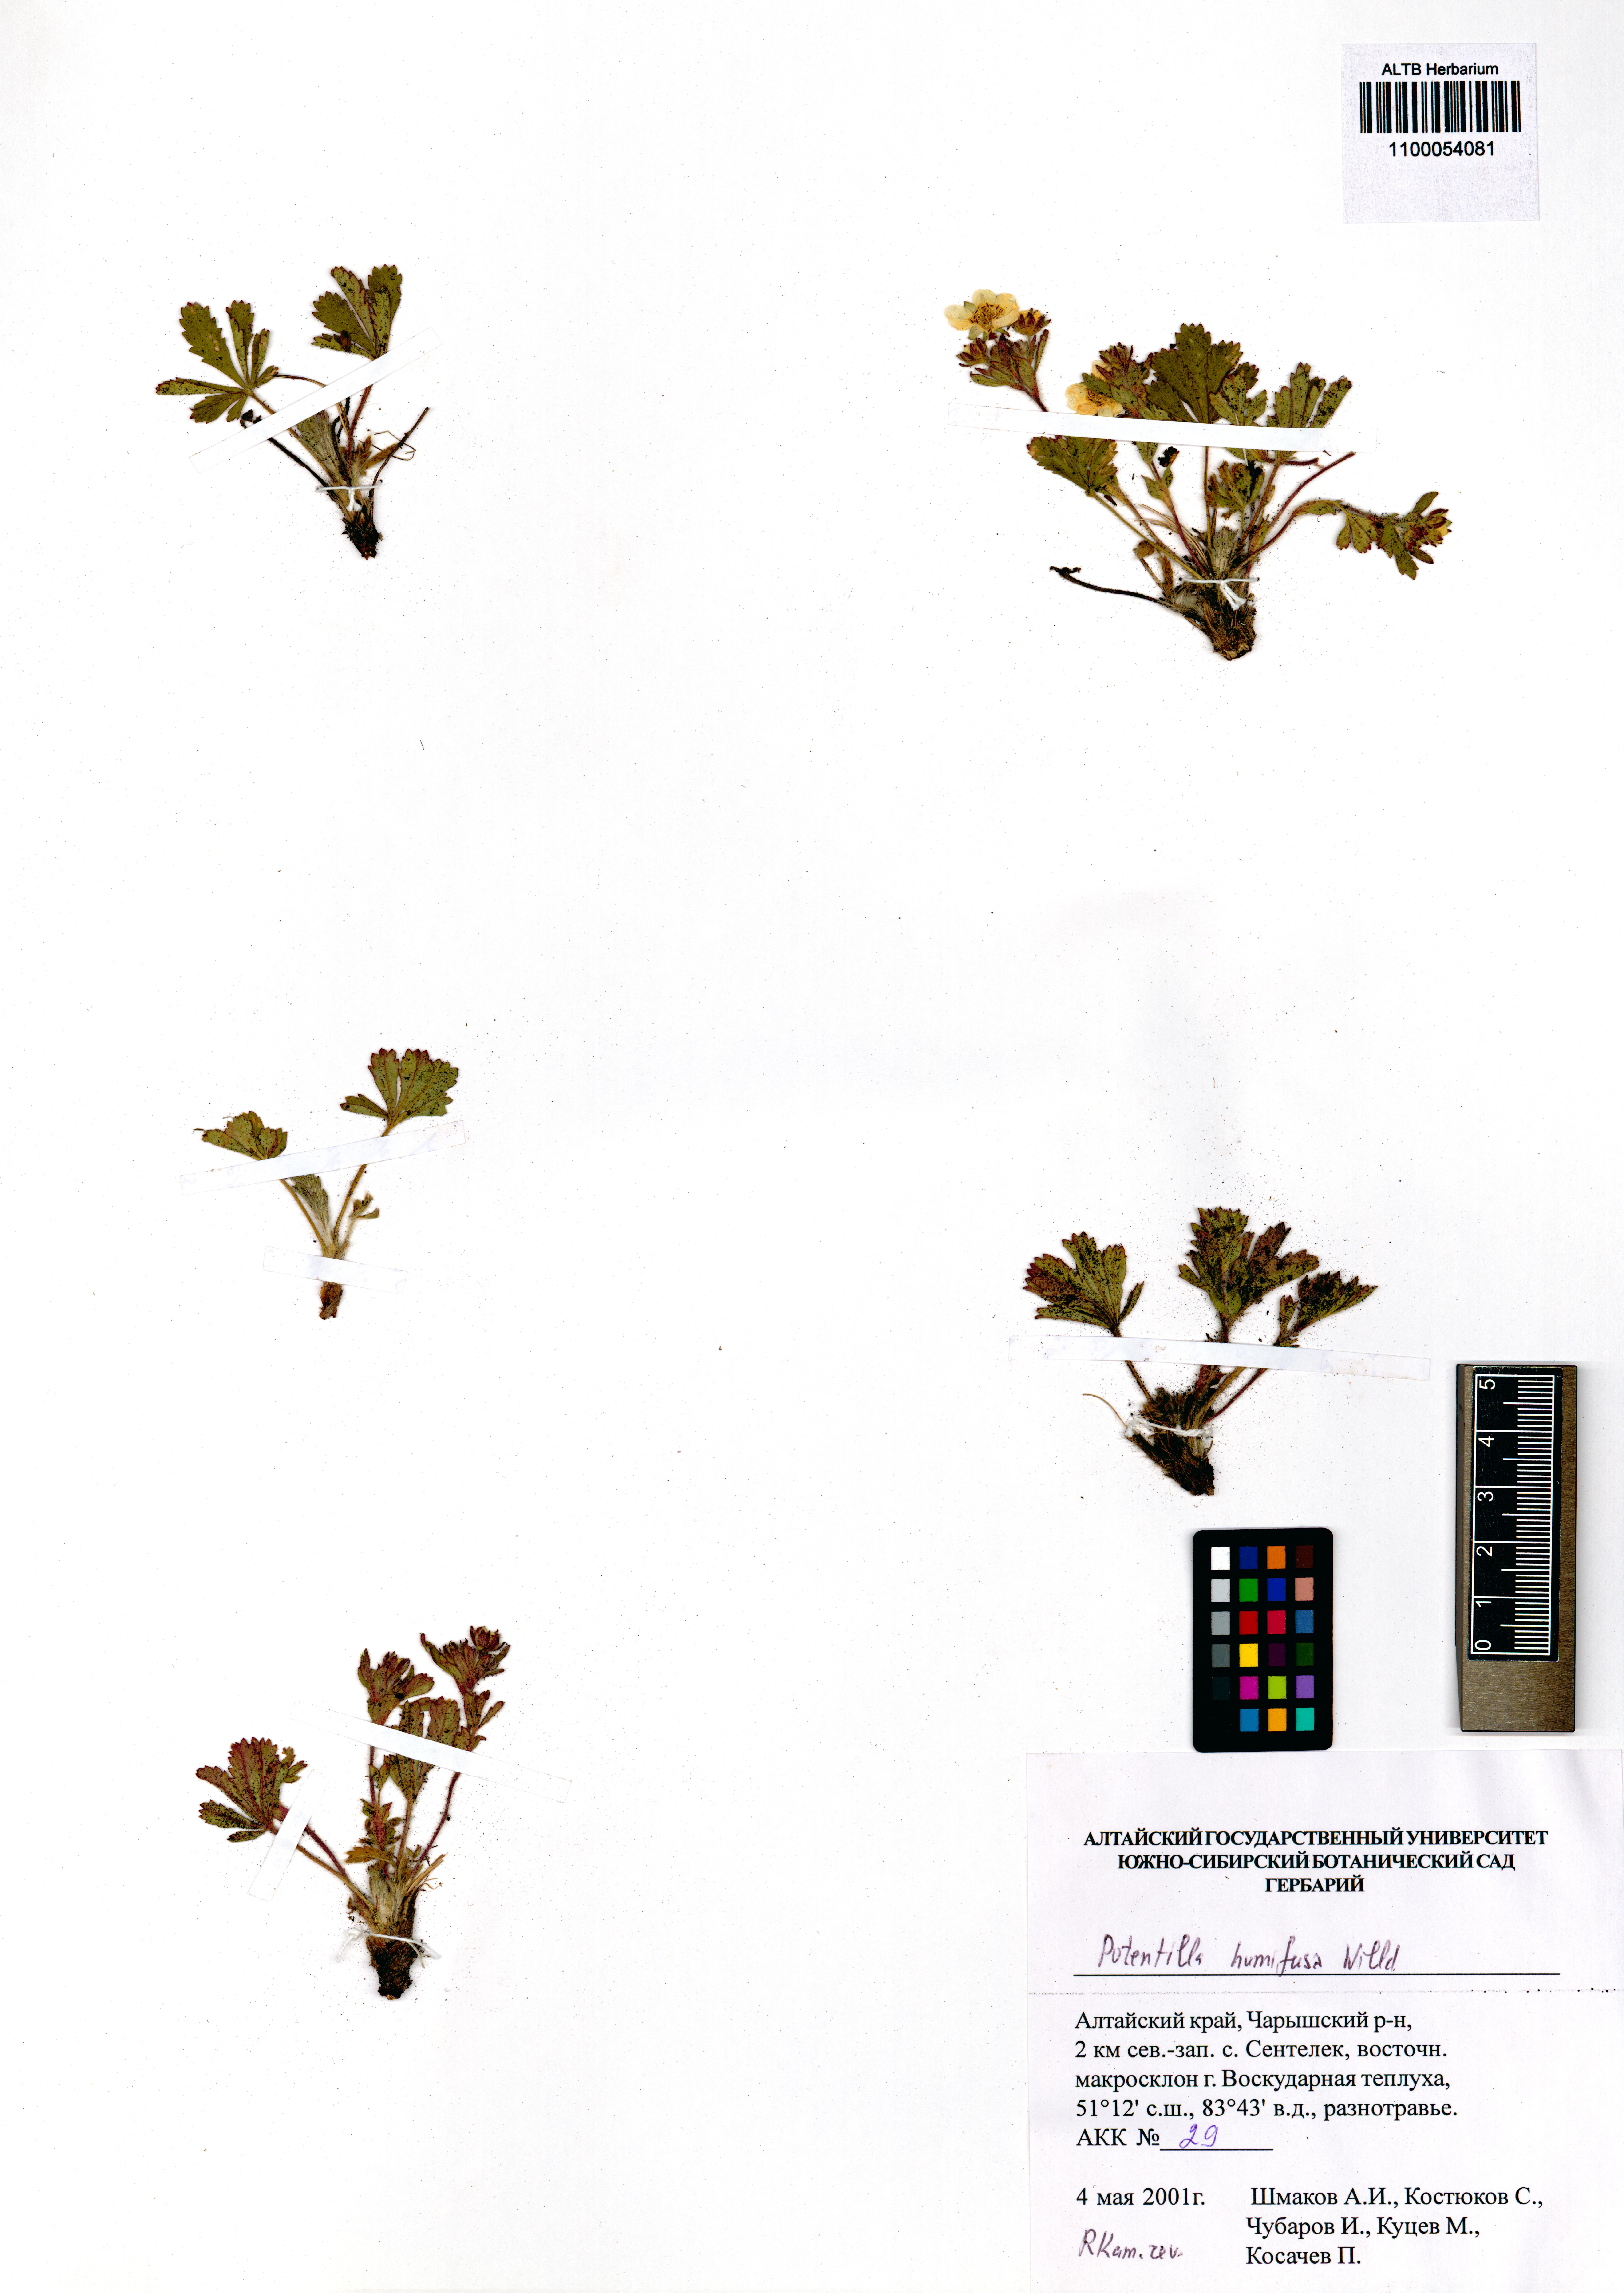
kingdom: Plantae
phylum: Tracheophyta
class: Magnoliopsida
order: Rosales
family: Rosaceae
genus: Potentilla
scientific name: Potentilla humifusa
